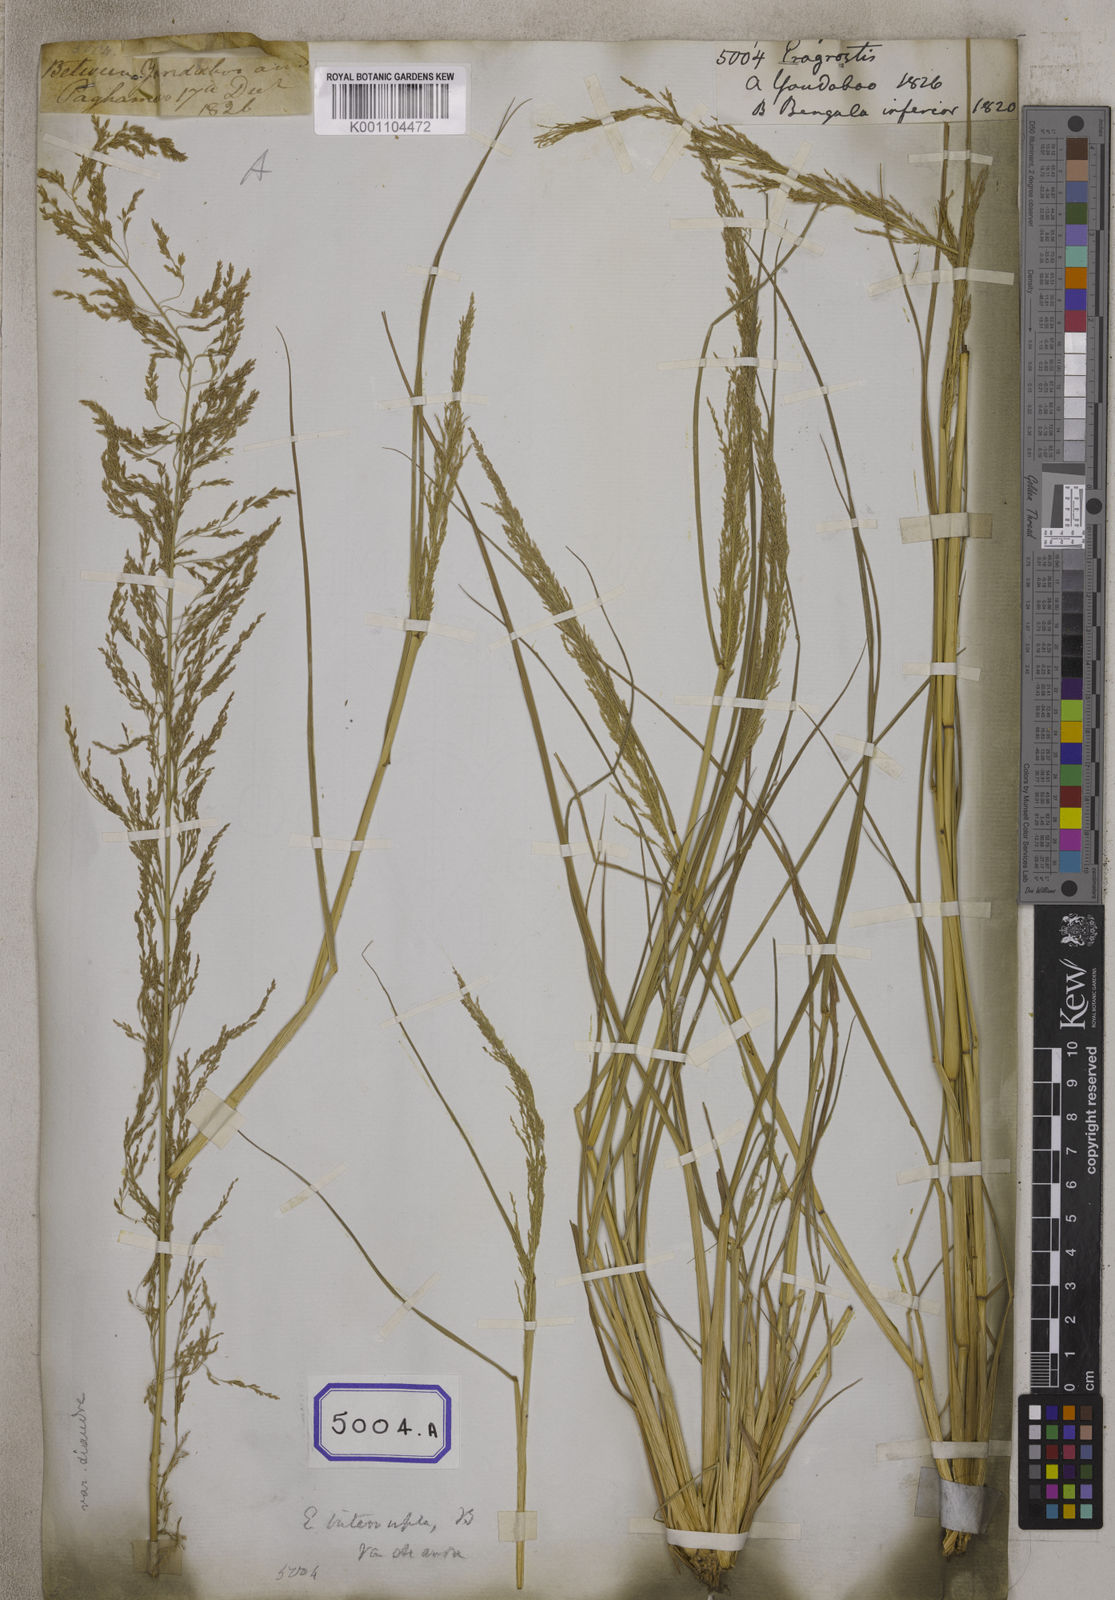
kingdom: Plantae
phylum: Tracheophyta
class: Liliopsida
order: Poales
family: Poaceae
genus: Eragrostis
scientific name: Eragrostis
